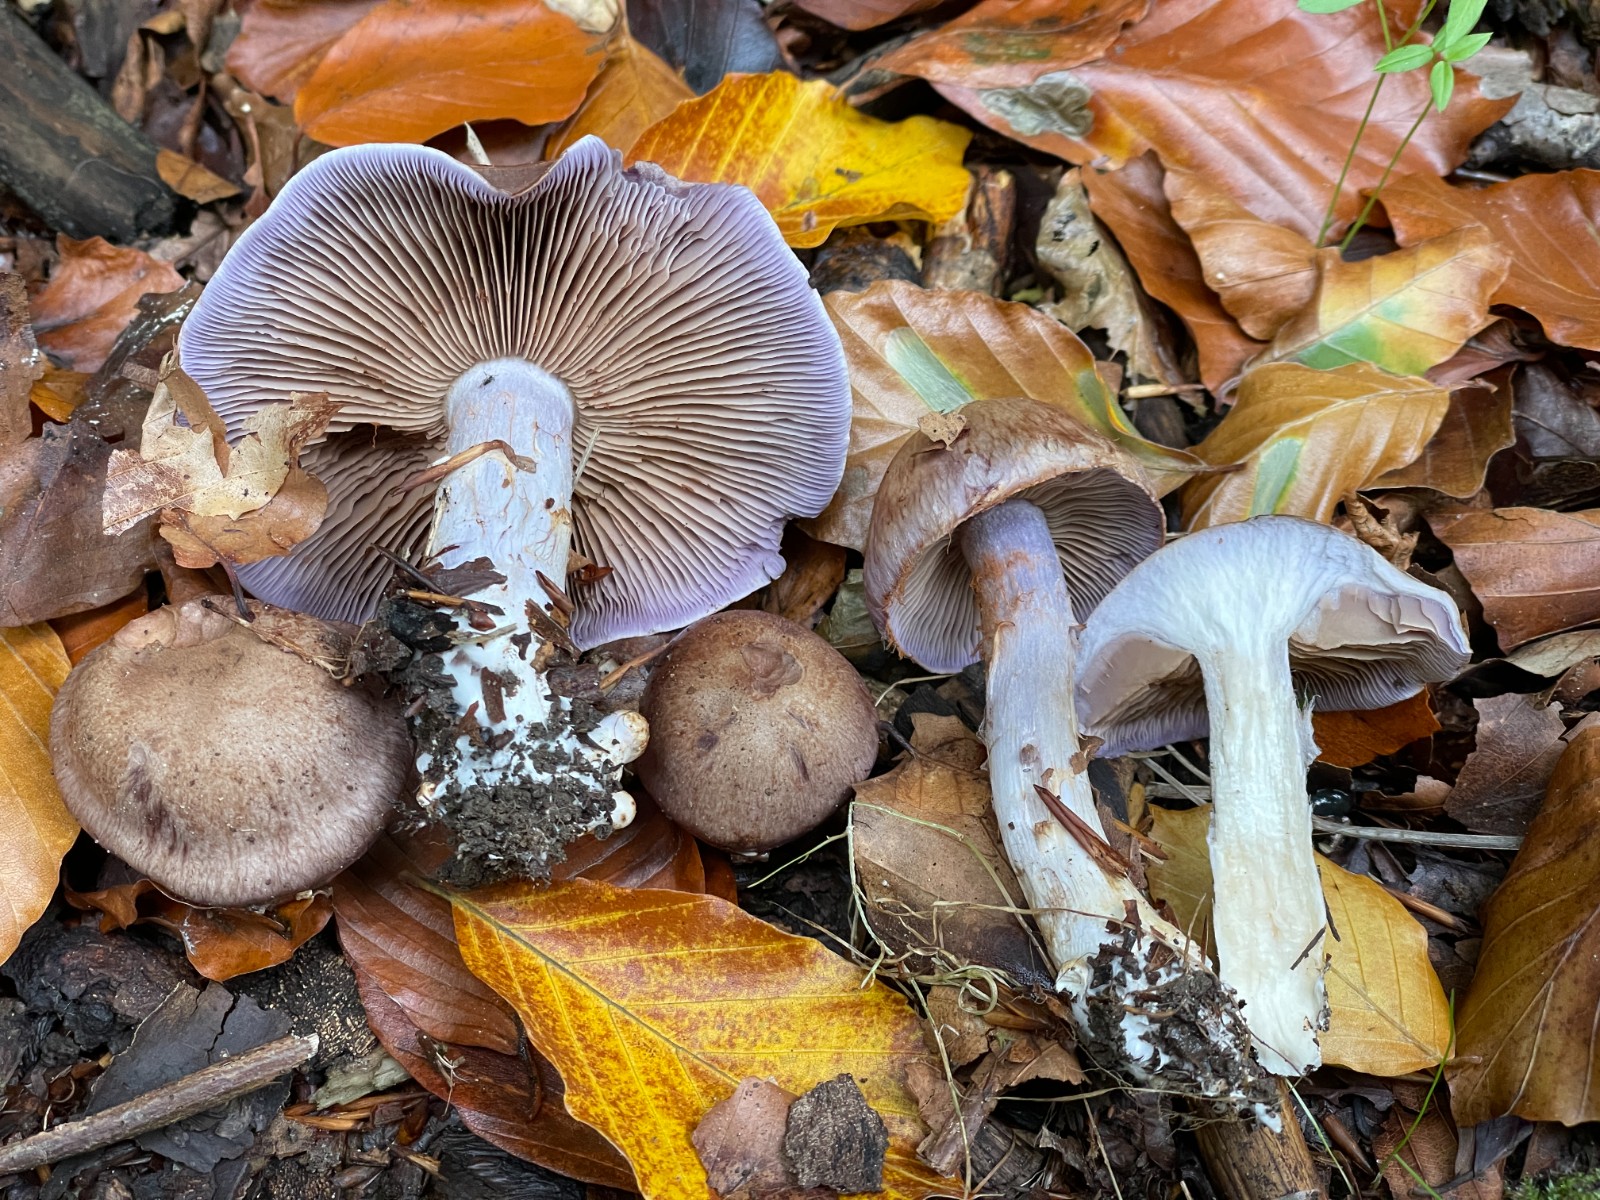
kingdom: Fungi
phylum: Basidiomycota
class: Agaricomycetes
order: Agaricales
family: Cortinariaceae
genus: Cortinarius
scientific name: Cortinarius largus
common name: violetrandet slørhat
